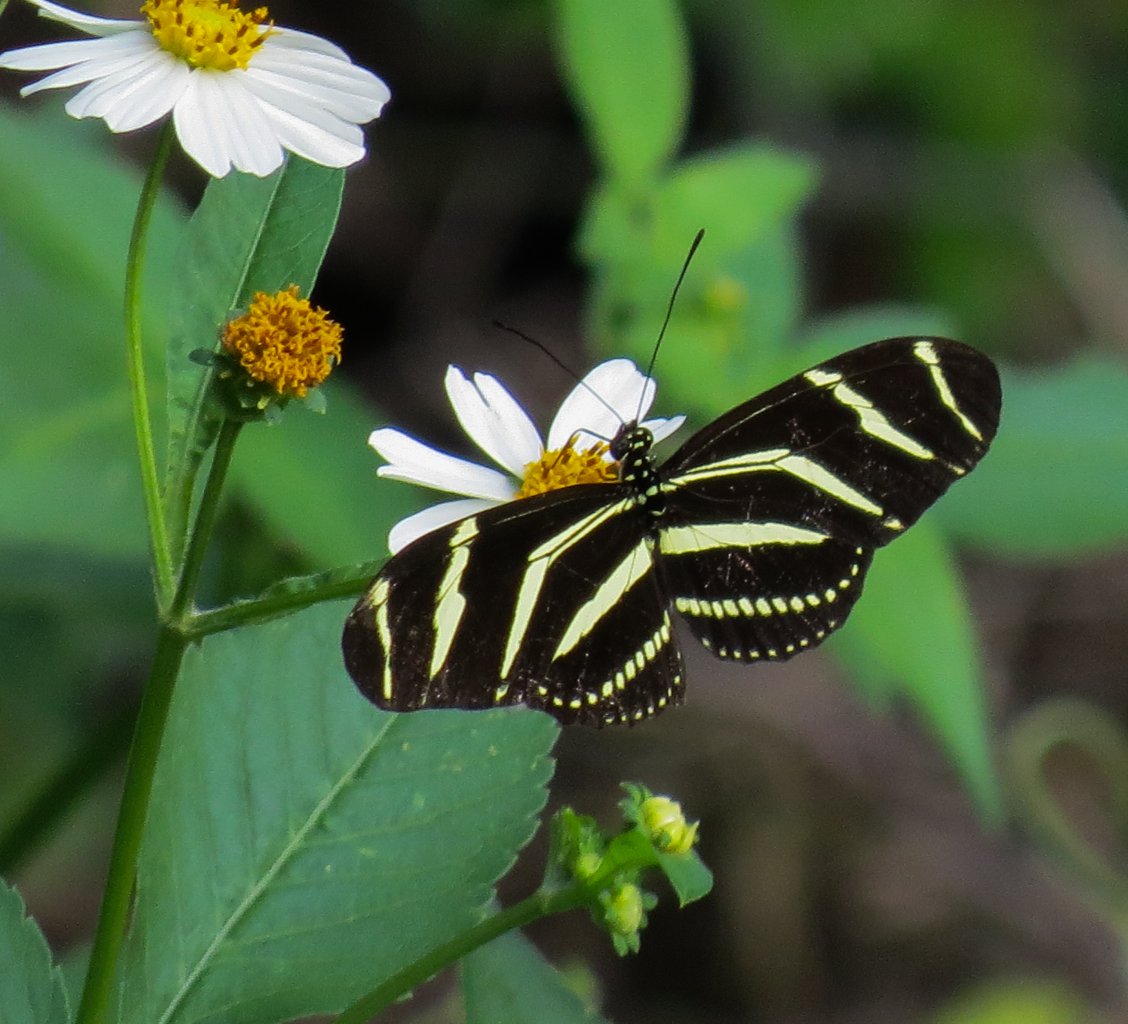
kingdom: Animalia
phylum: Arthropoda
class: Insecta
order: Lepidoptera
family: Nymphalidae
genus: Heliconius
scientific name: Heliconius charithonia
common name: Zebra Longwing
